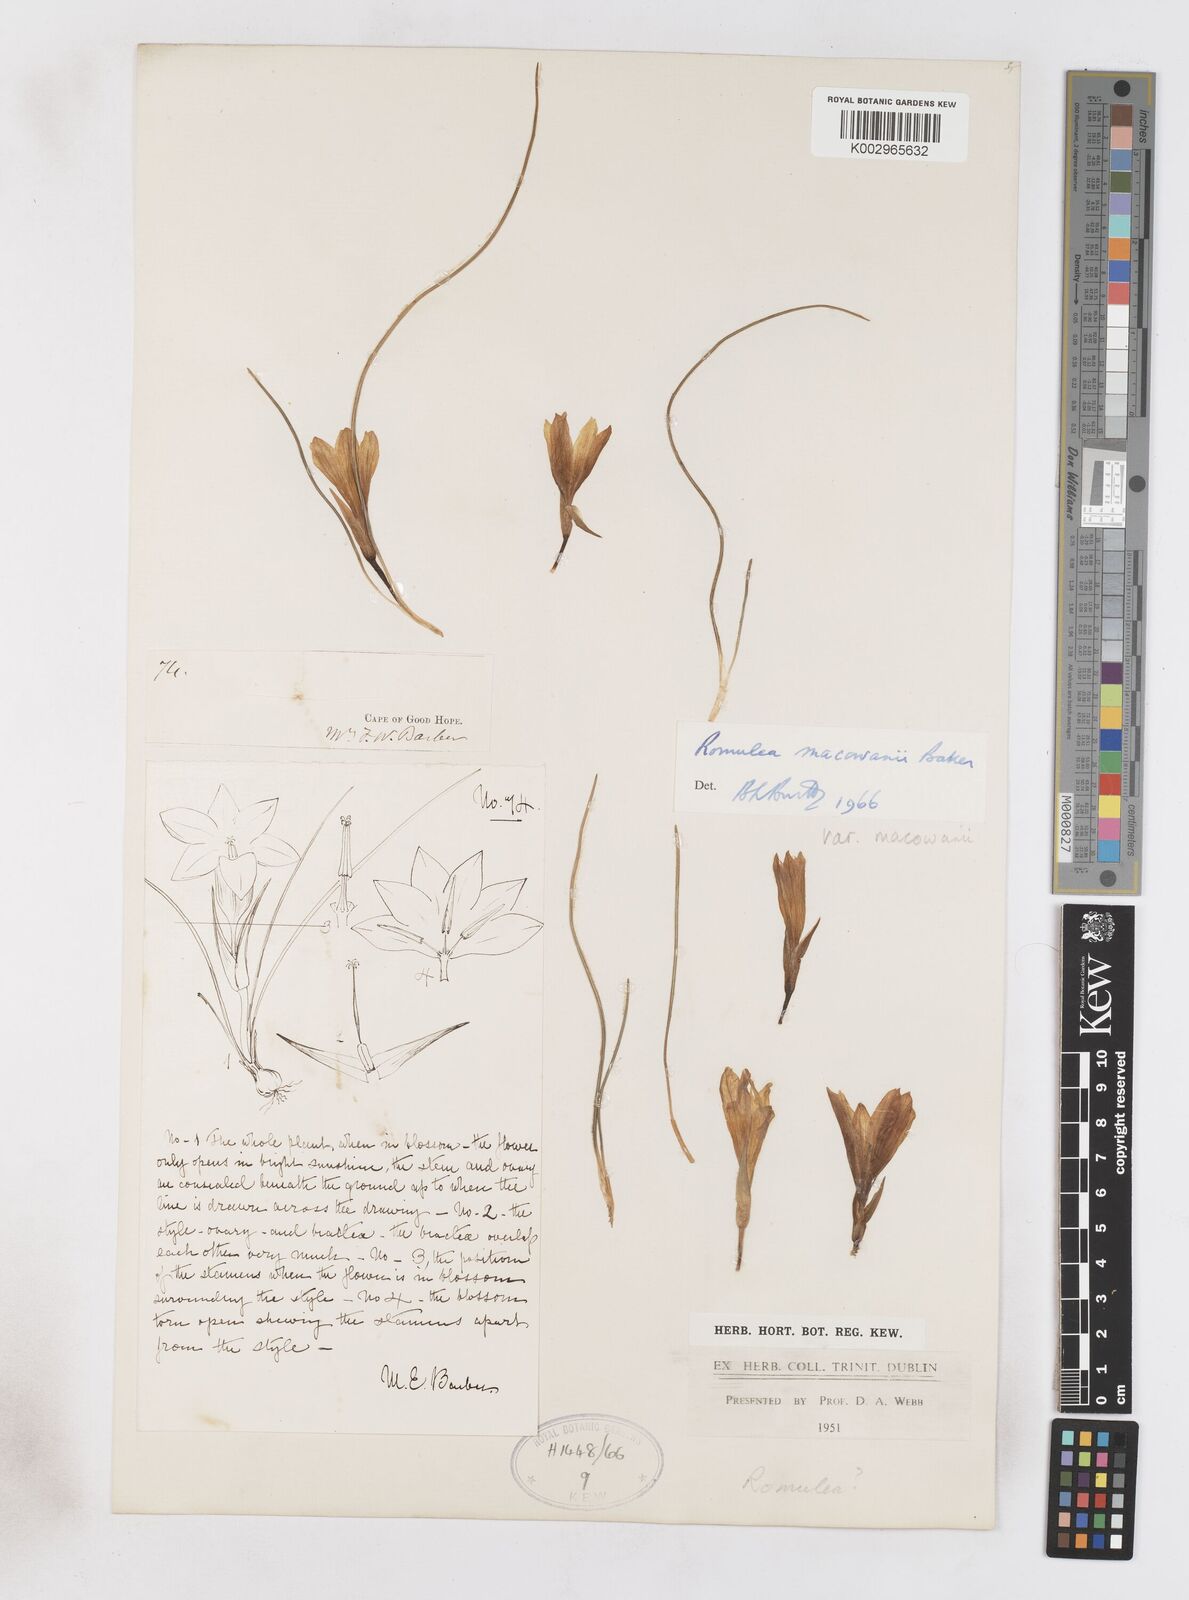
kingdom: Plantae
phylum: Tracheophyta
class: Liliopsida
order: Asparagales
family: Iridaceae
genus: Romulea
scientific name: Romulea macowanii
